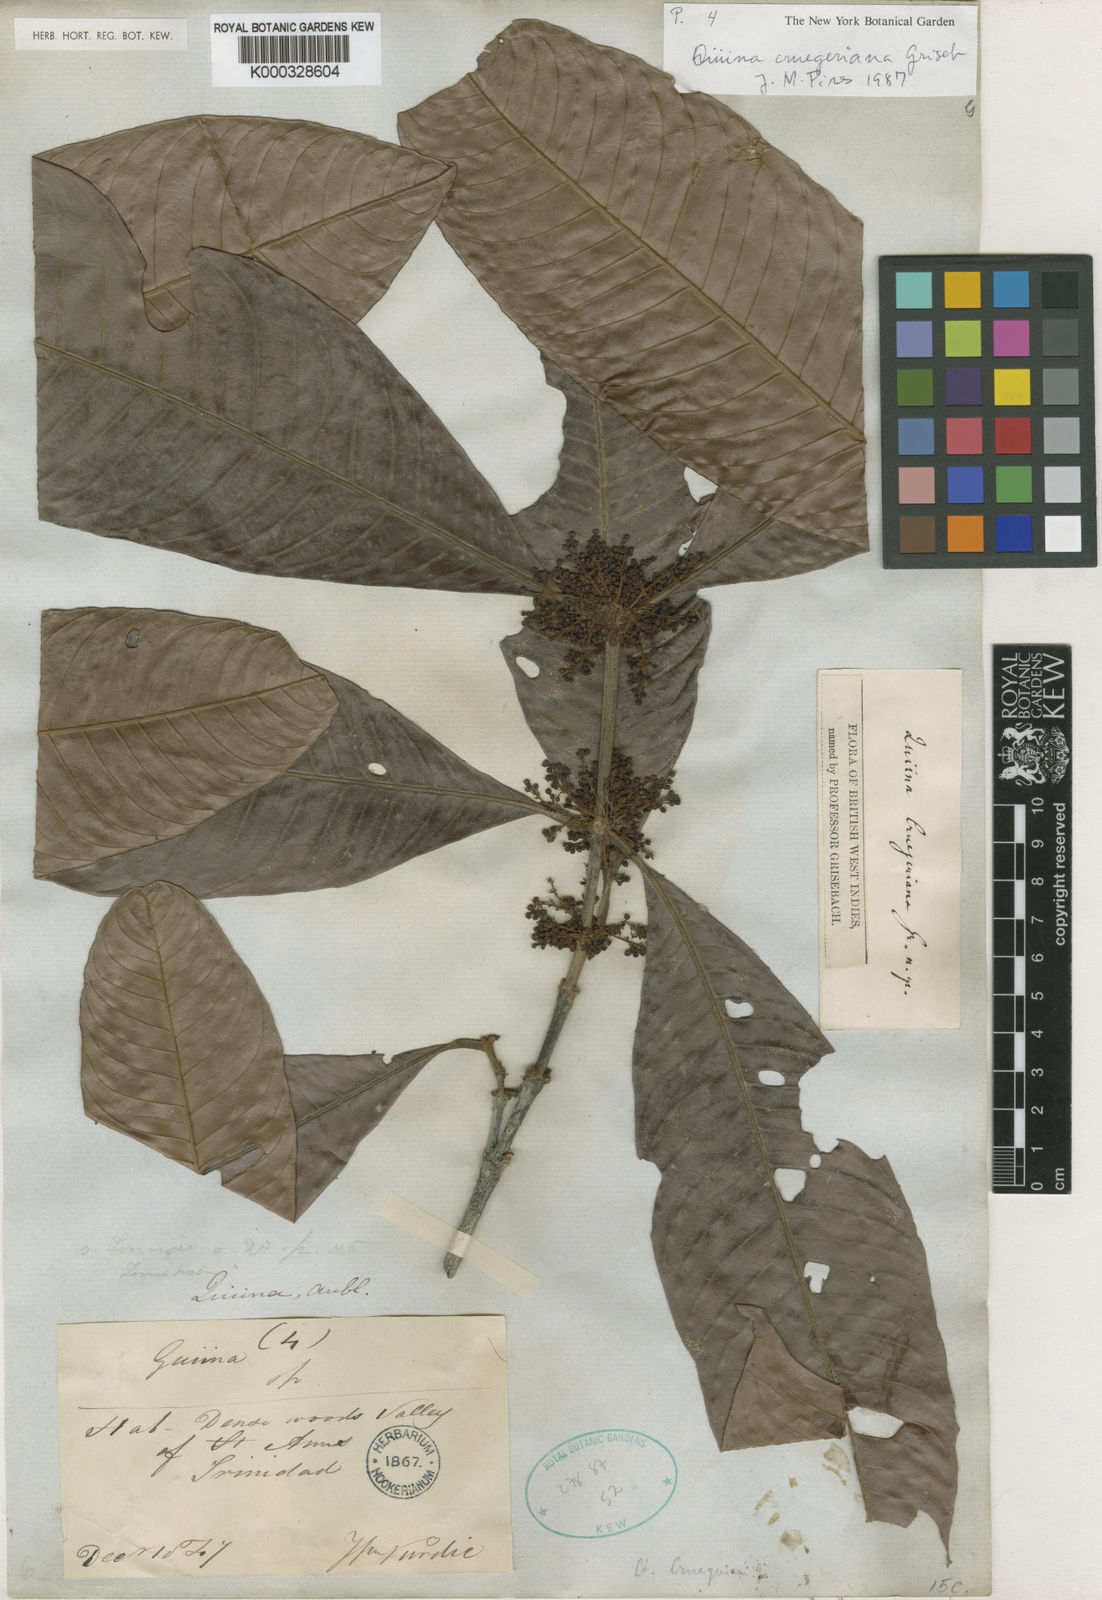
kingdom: Plantae
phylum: Tracheophyta
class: Magnoliopsida
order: Malpighiales
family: Quiinaceae
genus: Quiina
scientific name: Quiina cruegeriana
